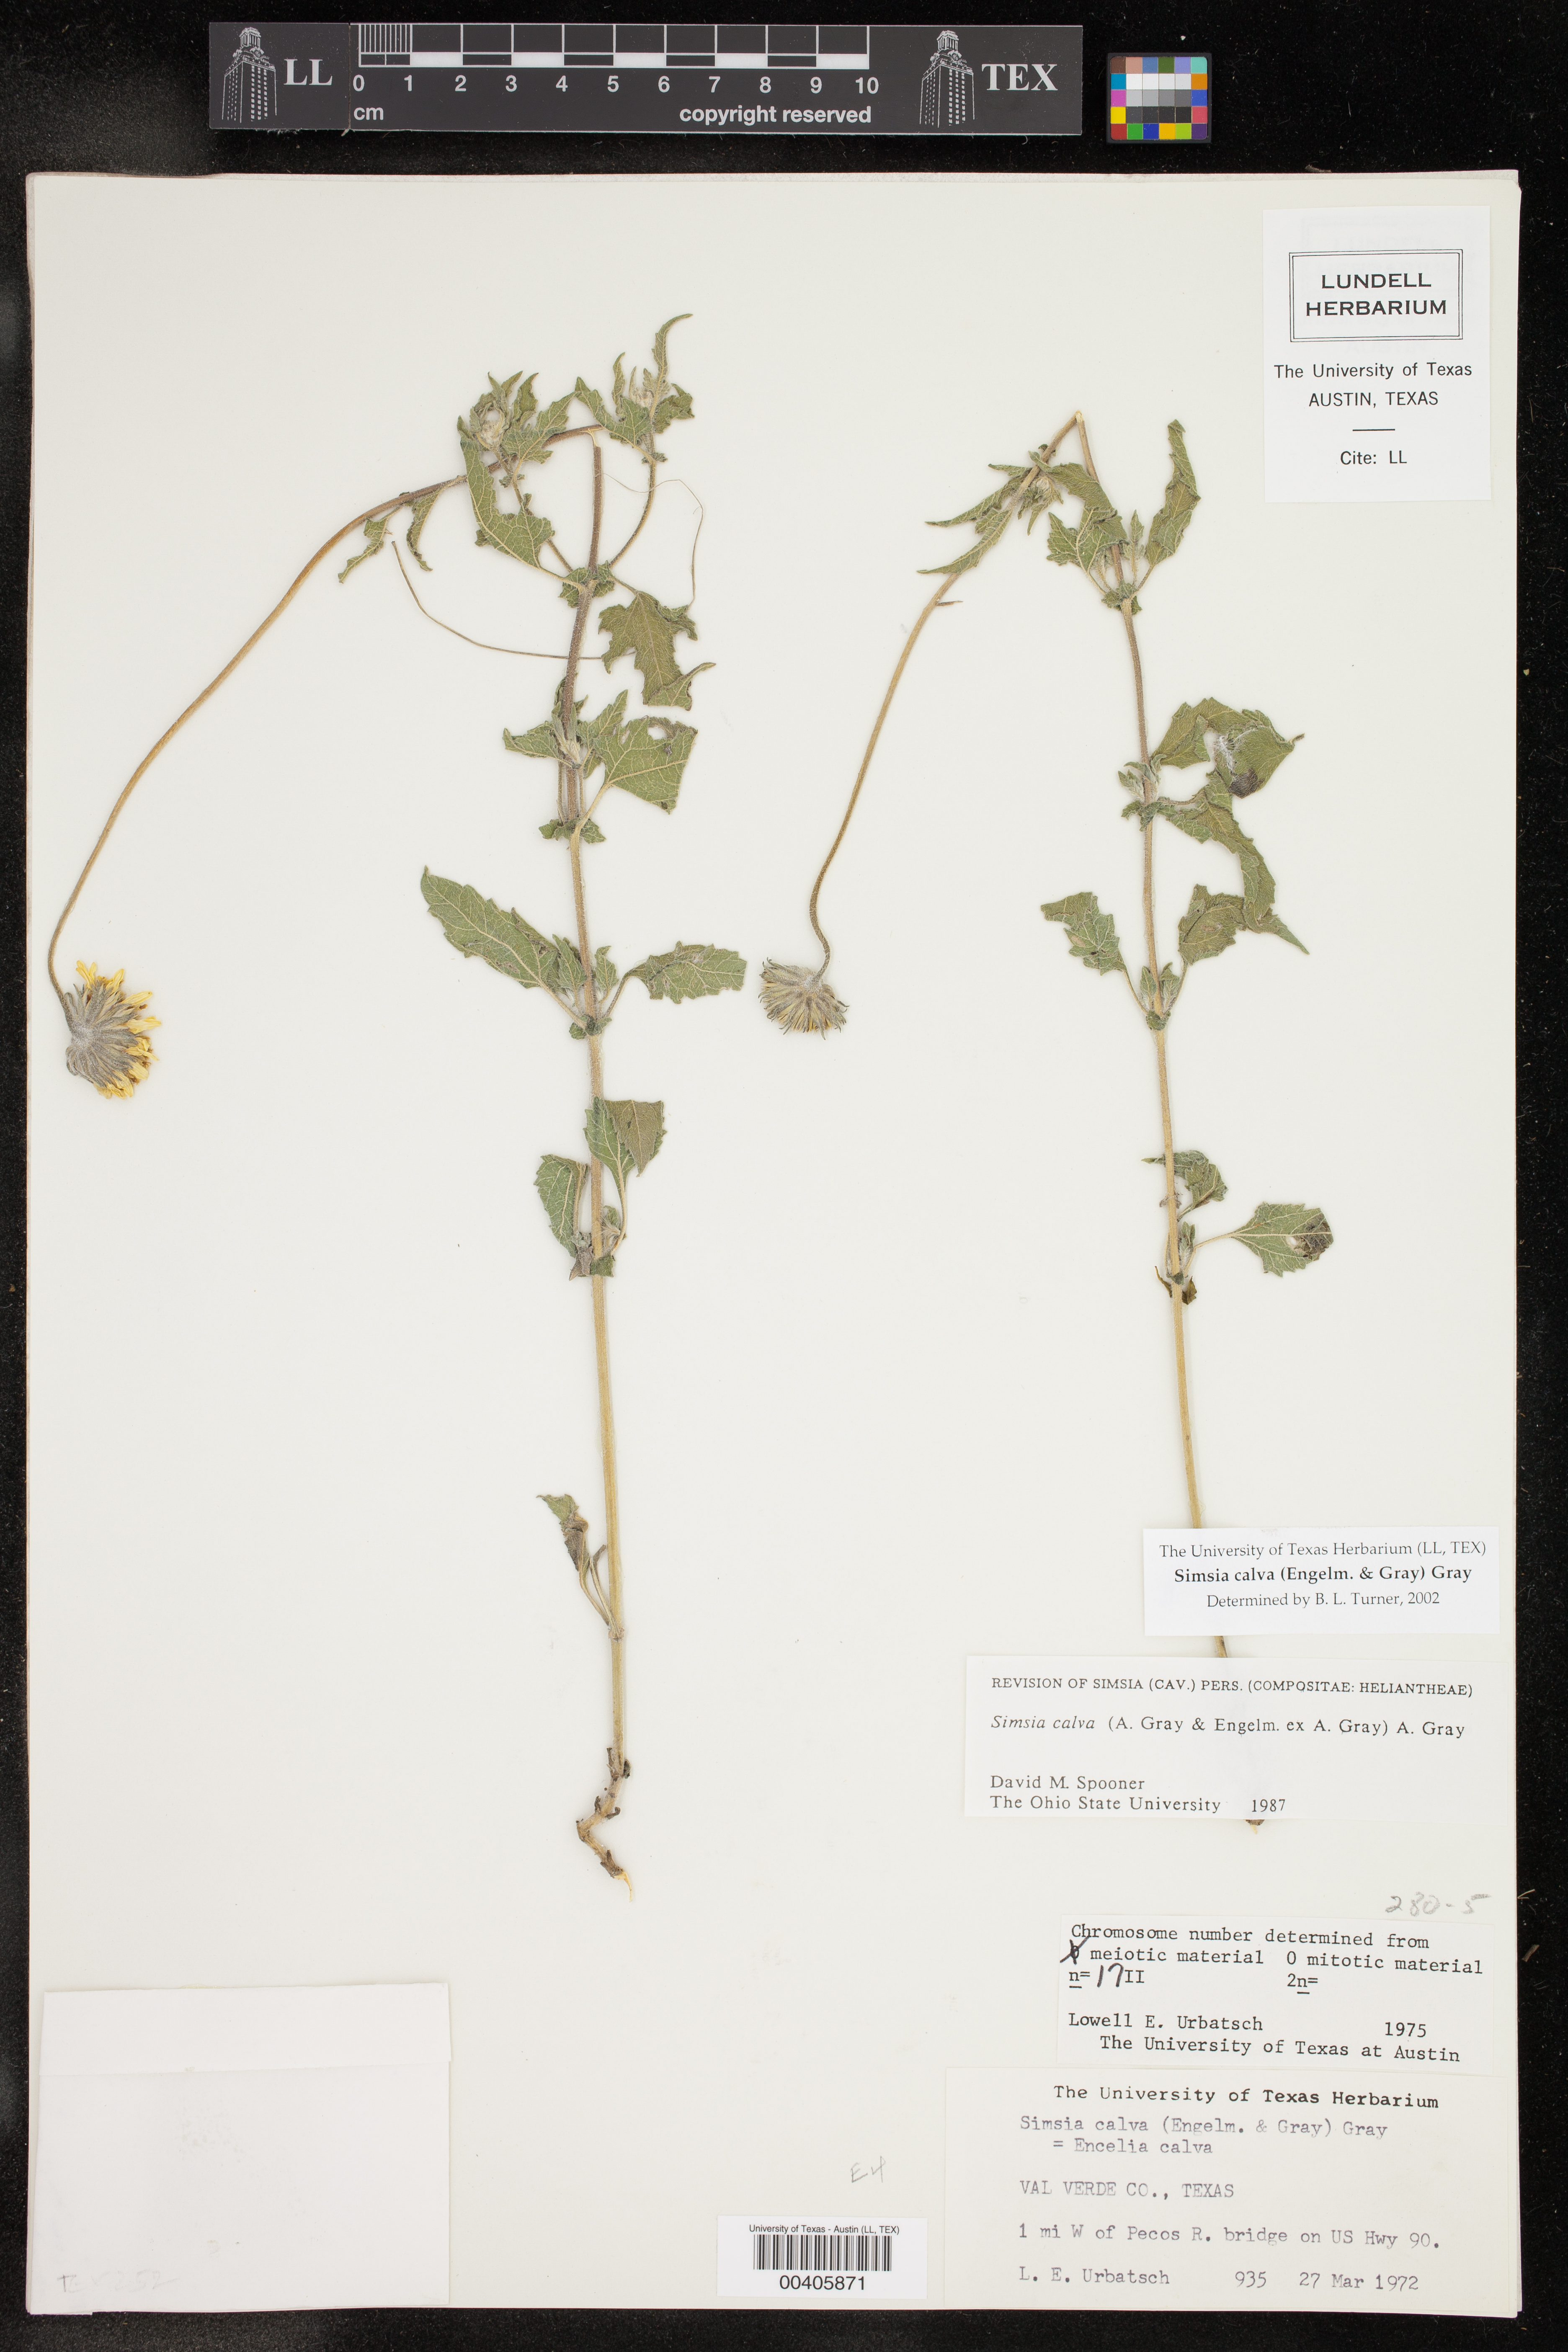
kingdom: Plantae
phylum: Tracheophyta
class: Magnoliopsida
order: Asterales
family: Asteraceae
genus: Simsia
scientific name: Simsia calva
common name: Awnless bush-sunflower
